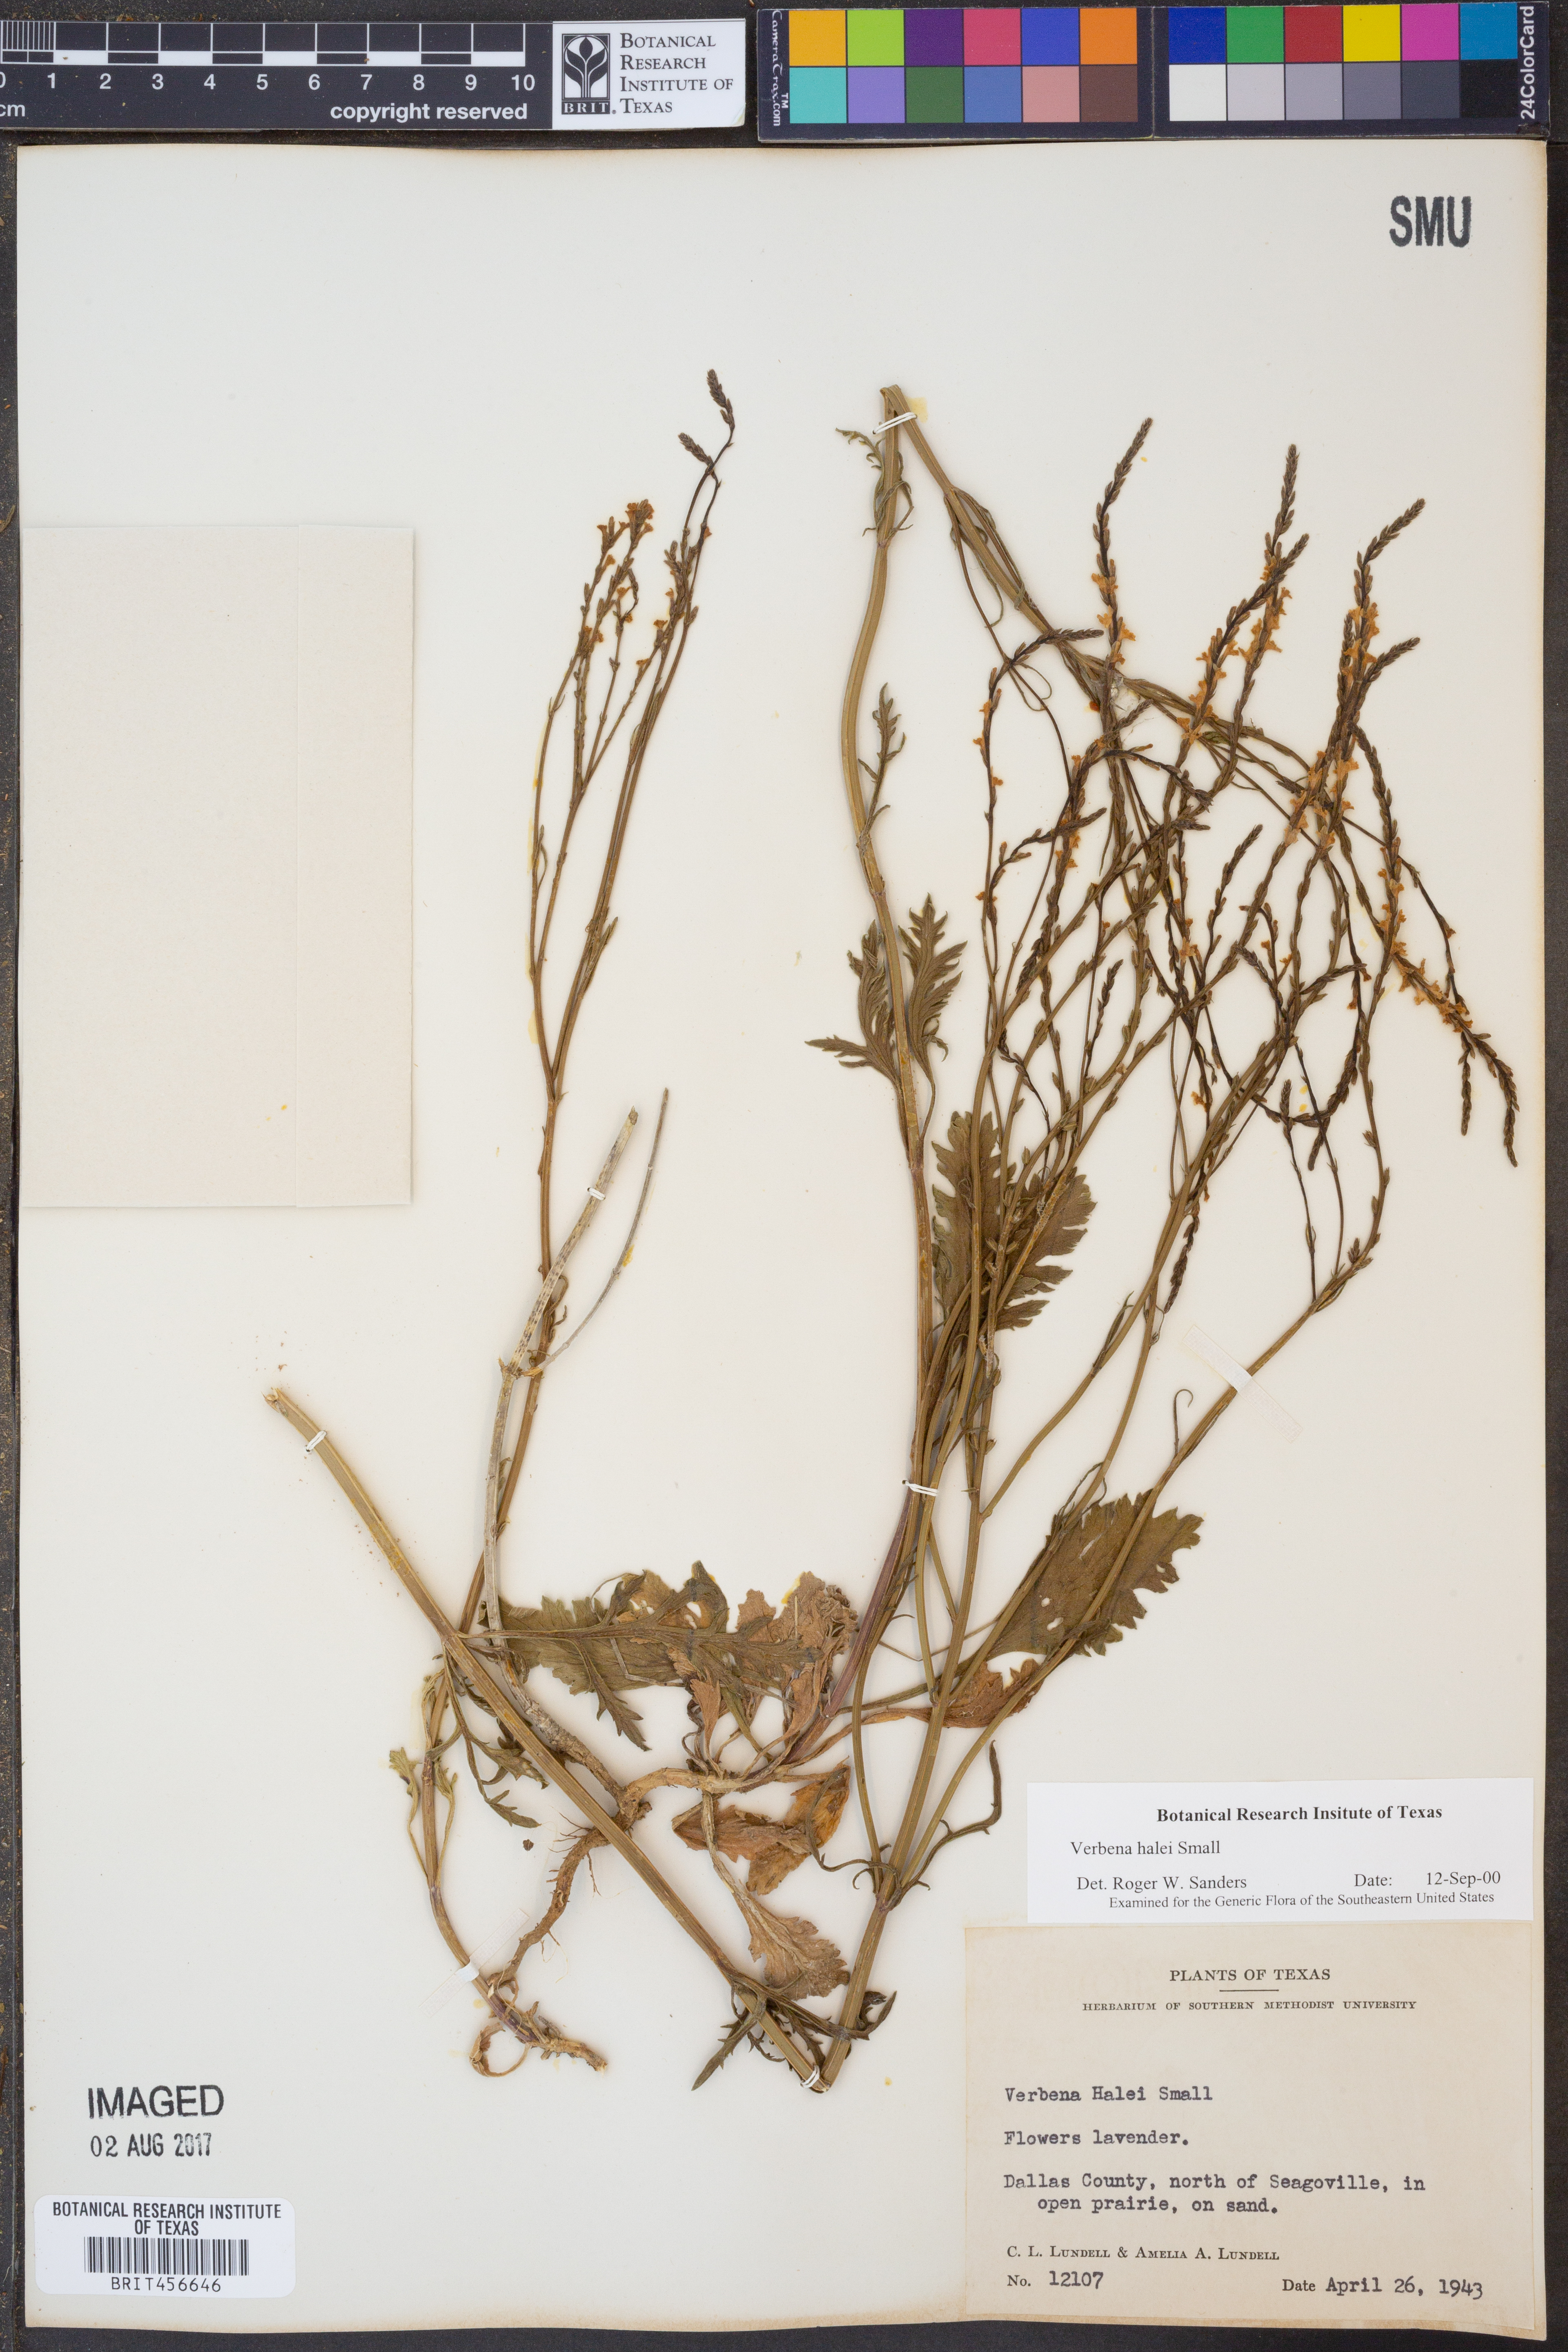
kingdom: Plantae
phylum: Tracheophyta
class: Magnoliopsida
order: Lamiales
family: Verbenaceae
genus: Verbena
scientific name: Verbena halei
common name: Texas vervain
